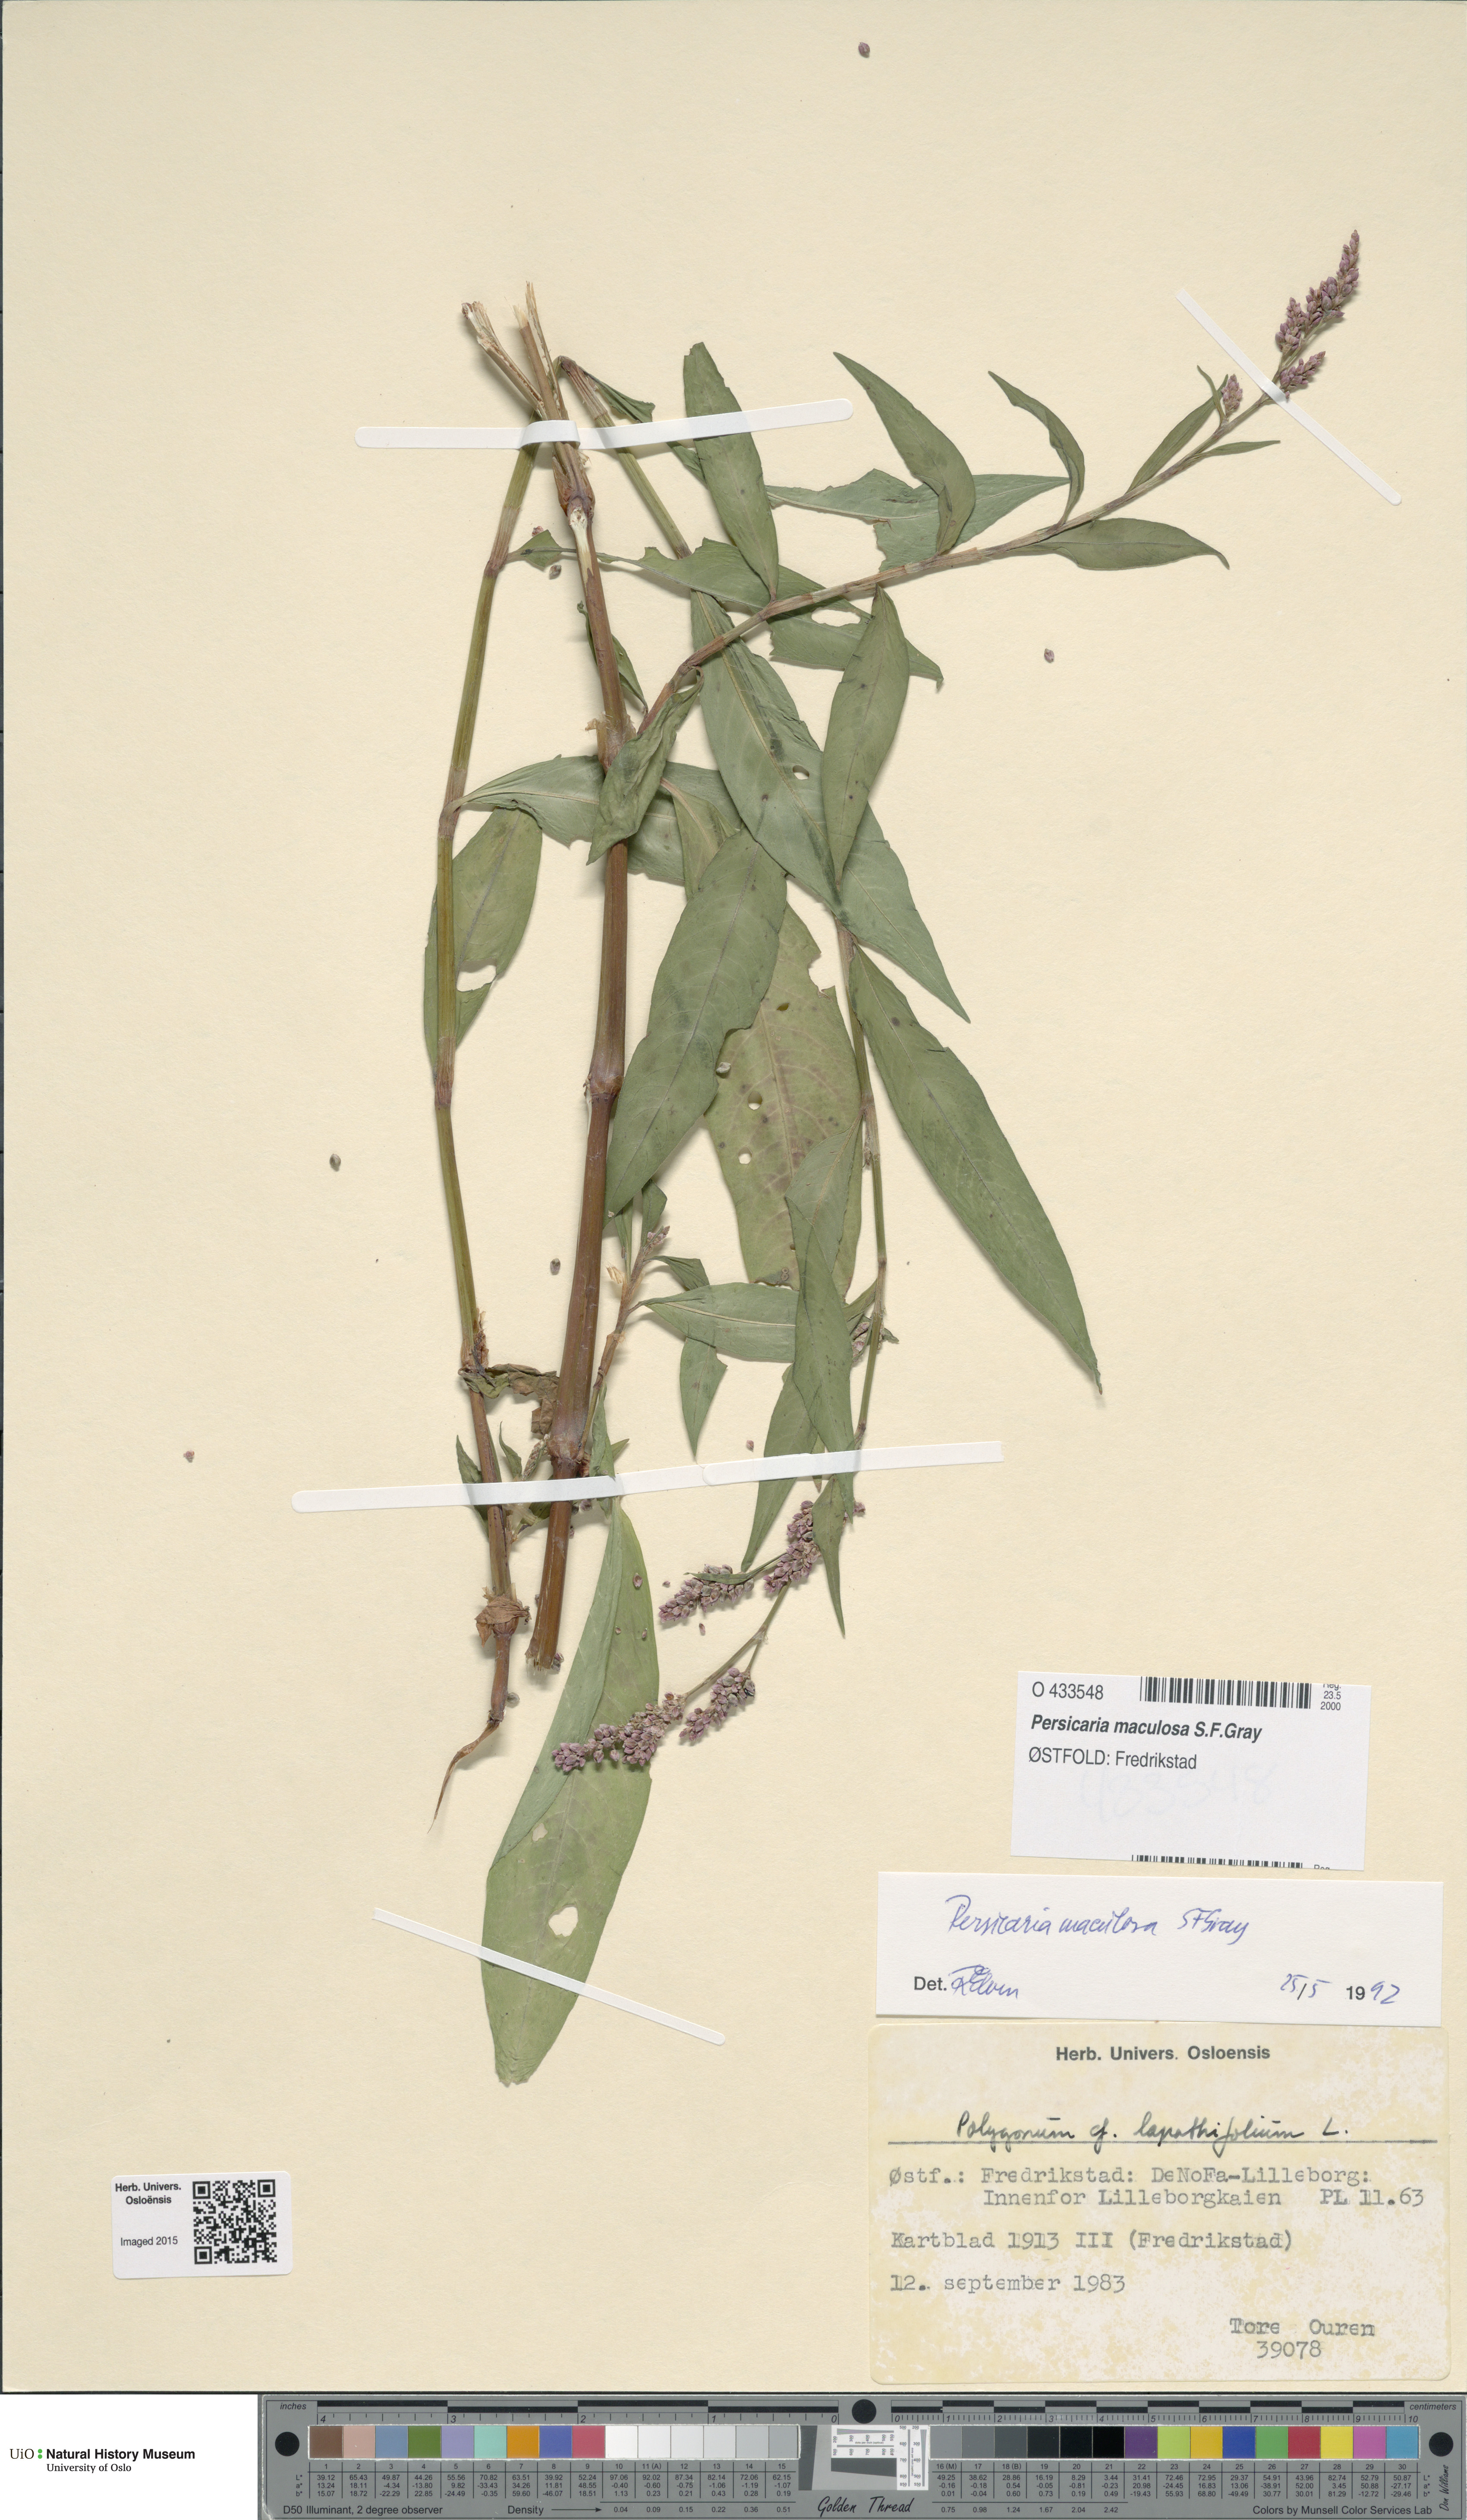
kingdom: Plantae
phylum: Tracheophyta
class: Magnoliopsida
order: Caryophyllales
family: Polygonaceae
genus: Persicaria
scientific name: Persicaria maculosa
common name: Redshank
